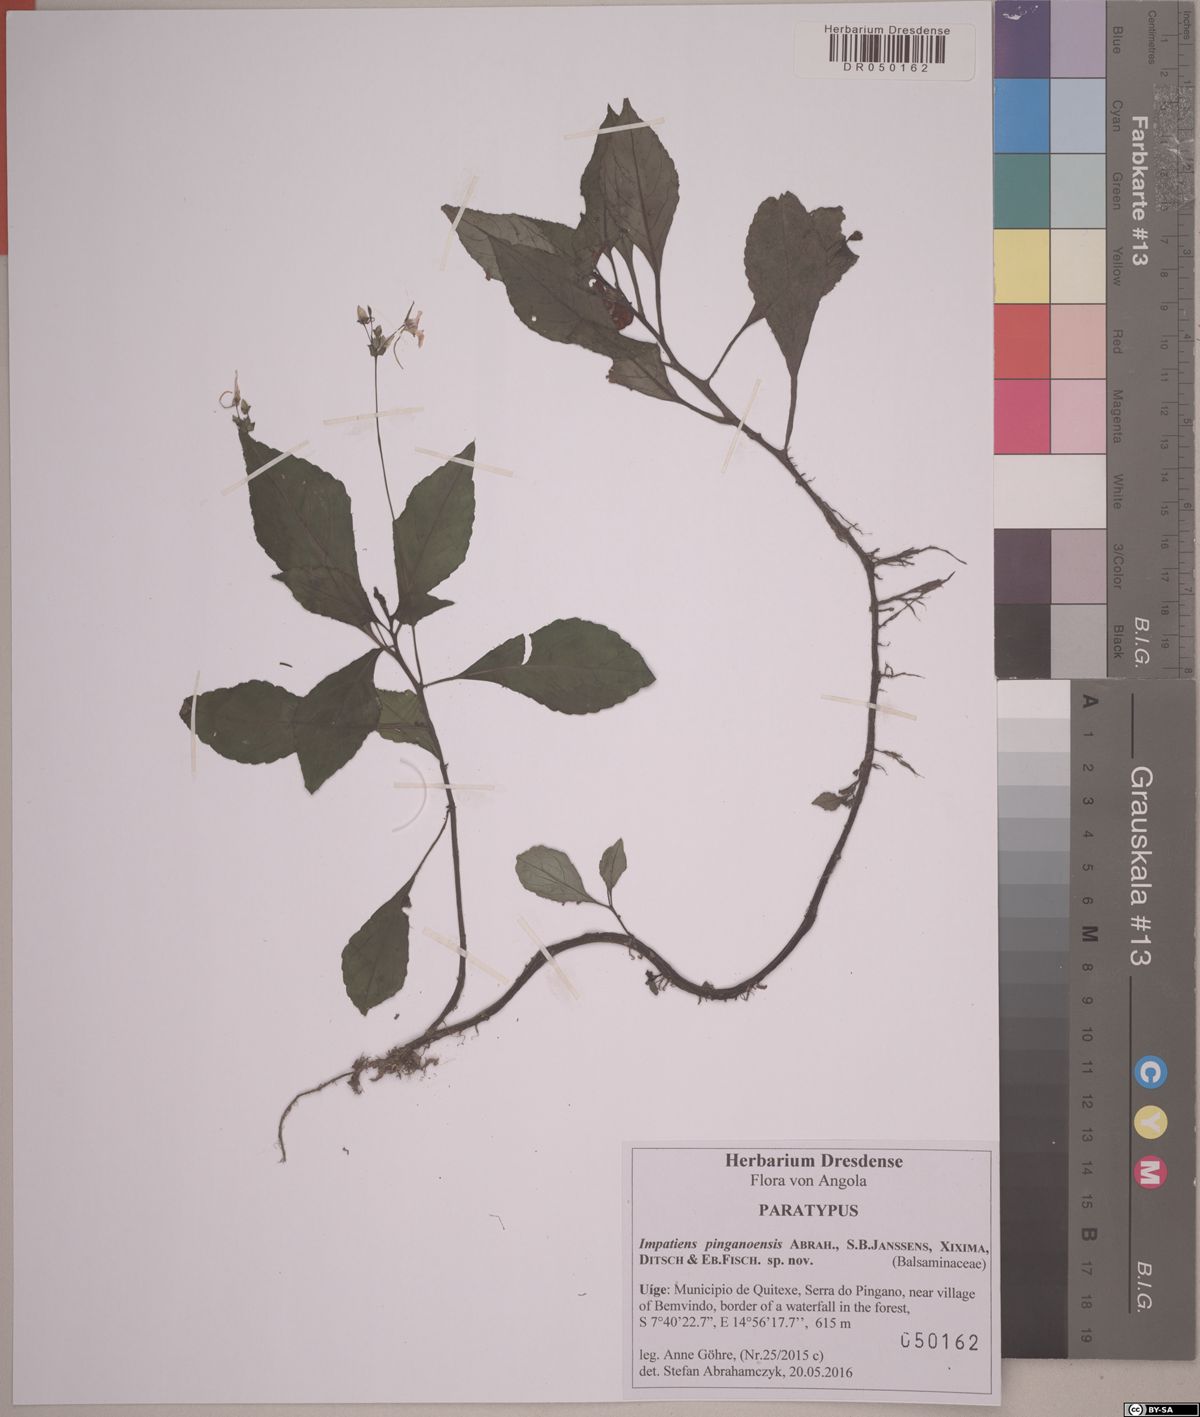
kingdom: Plantae
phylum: Tracheophyta
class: Magnoliopsida
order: Ericales
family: Balsaminaceae
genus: Impatiens
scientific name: Impatiens pinganoensis
